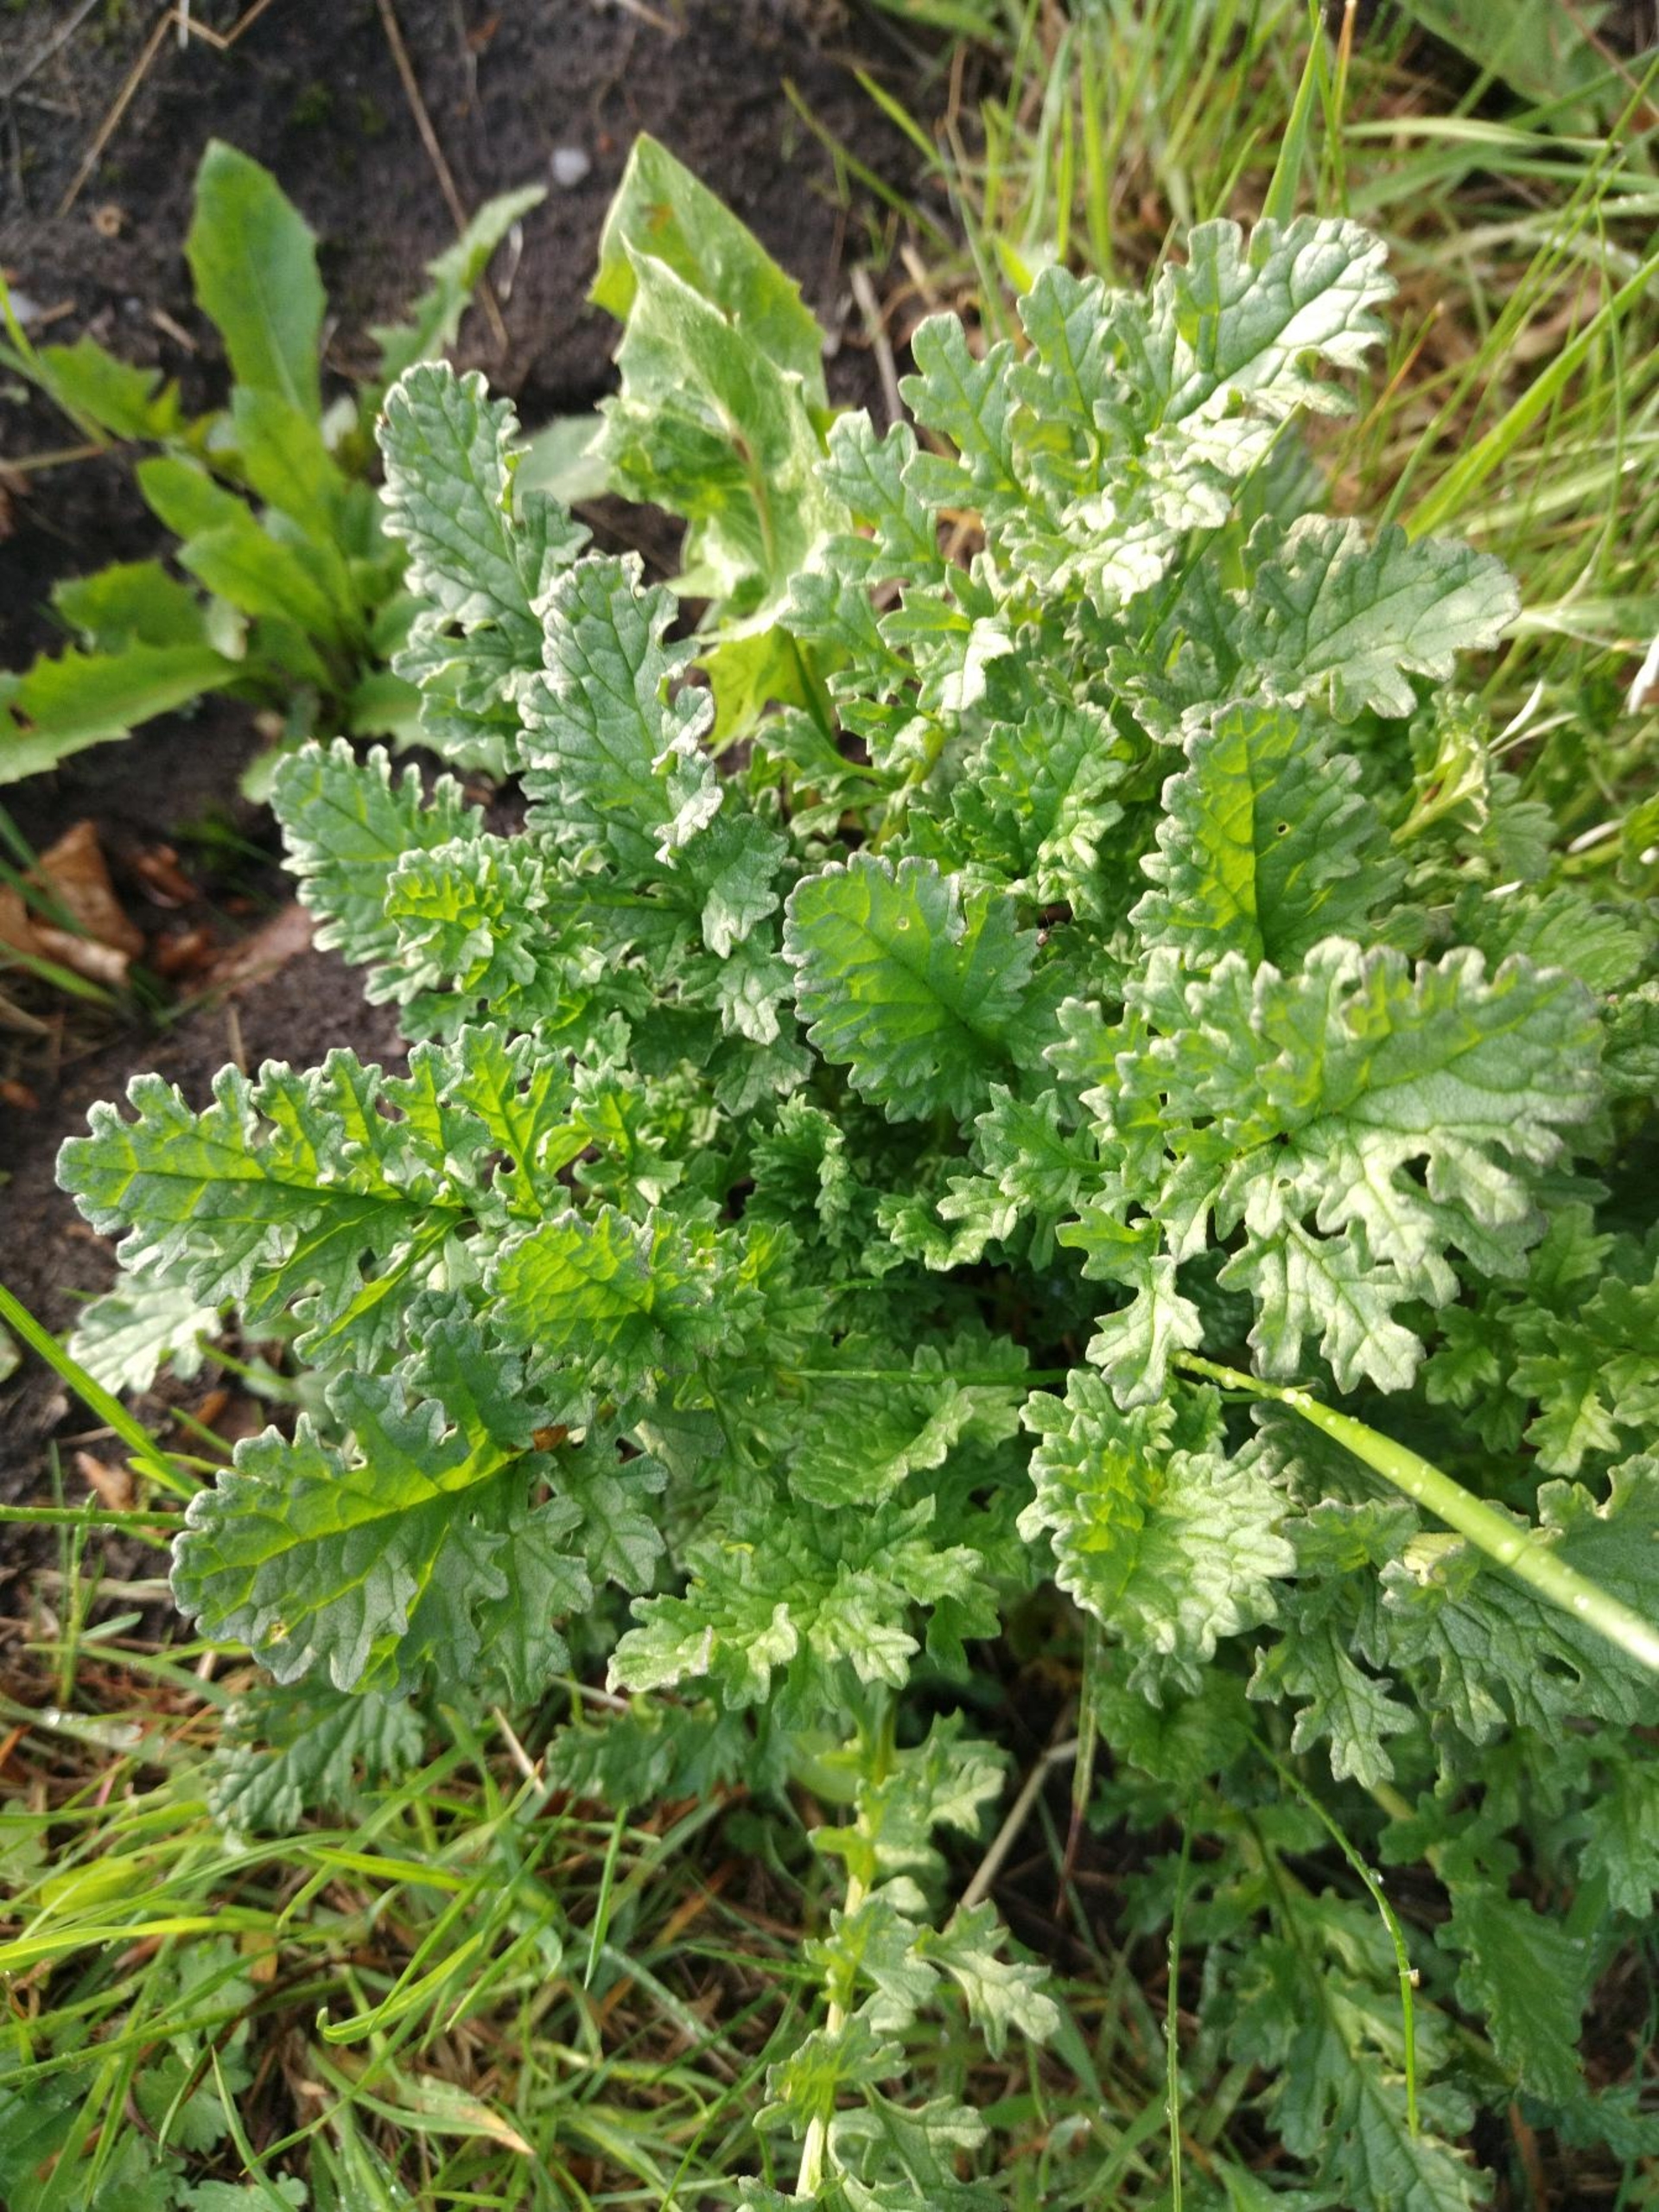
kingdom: Plantae
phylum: Tracheophyta
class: Magnoliopsida
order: Asterales
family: Asteraceae
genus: Jacobaea
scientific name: Jacobaea vulgaris
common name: Eng-brandbæger
